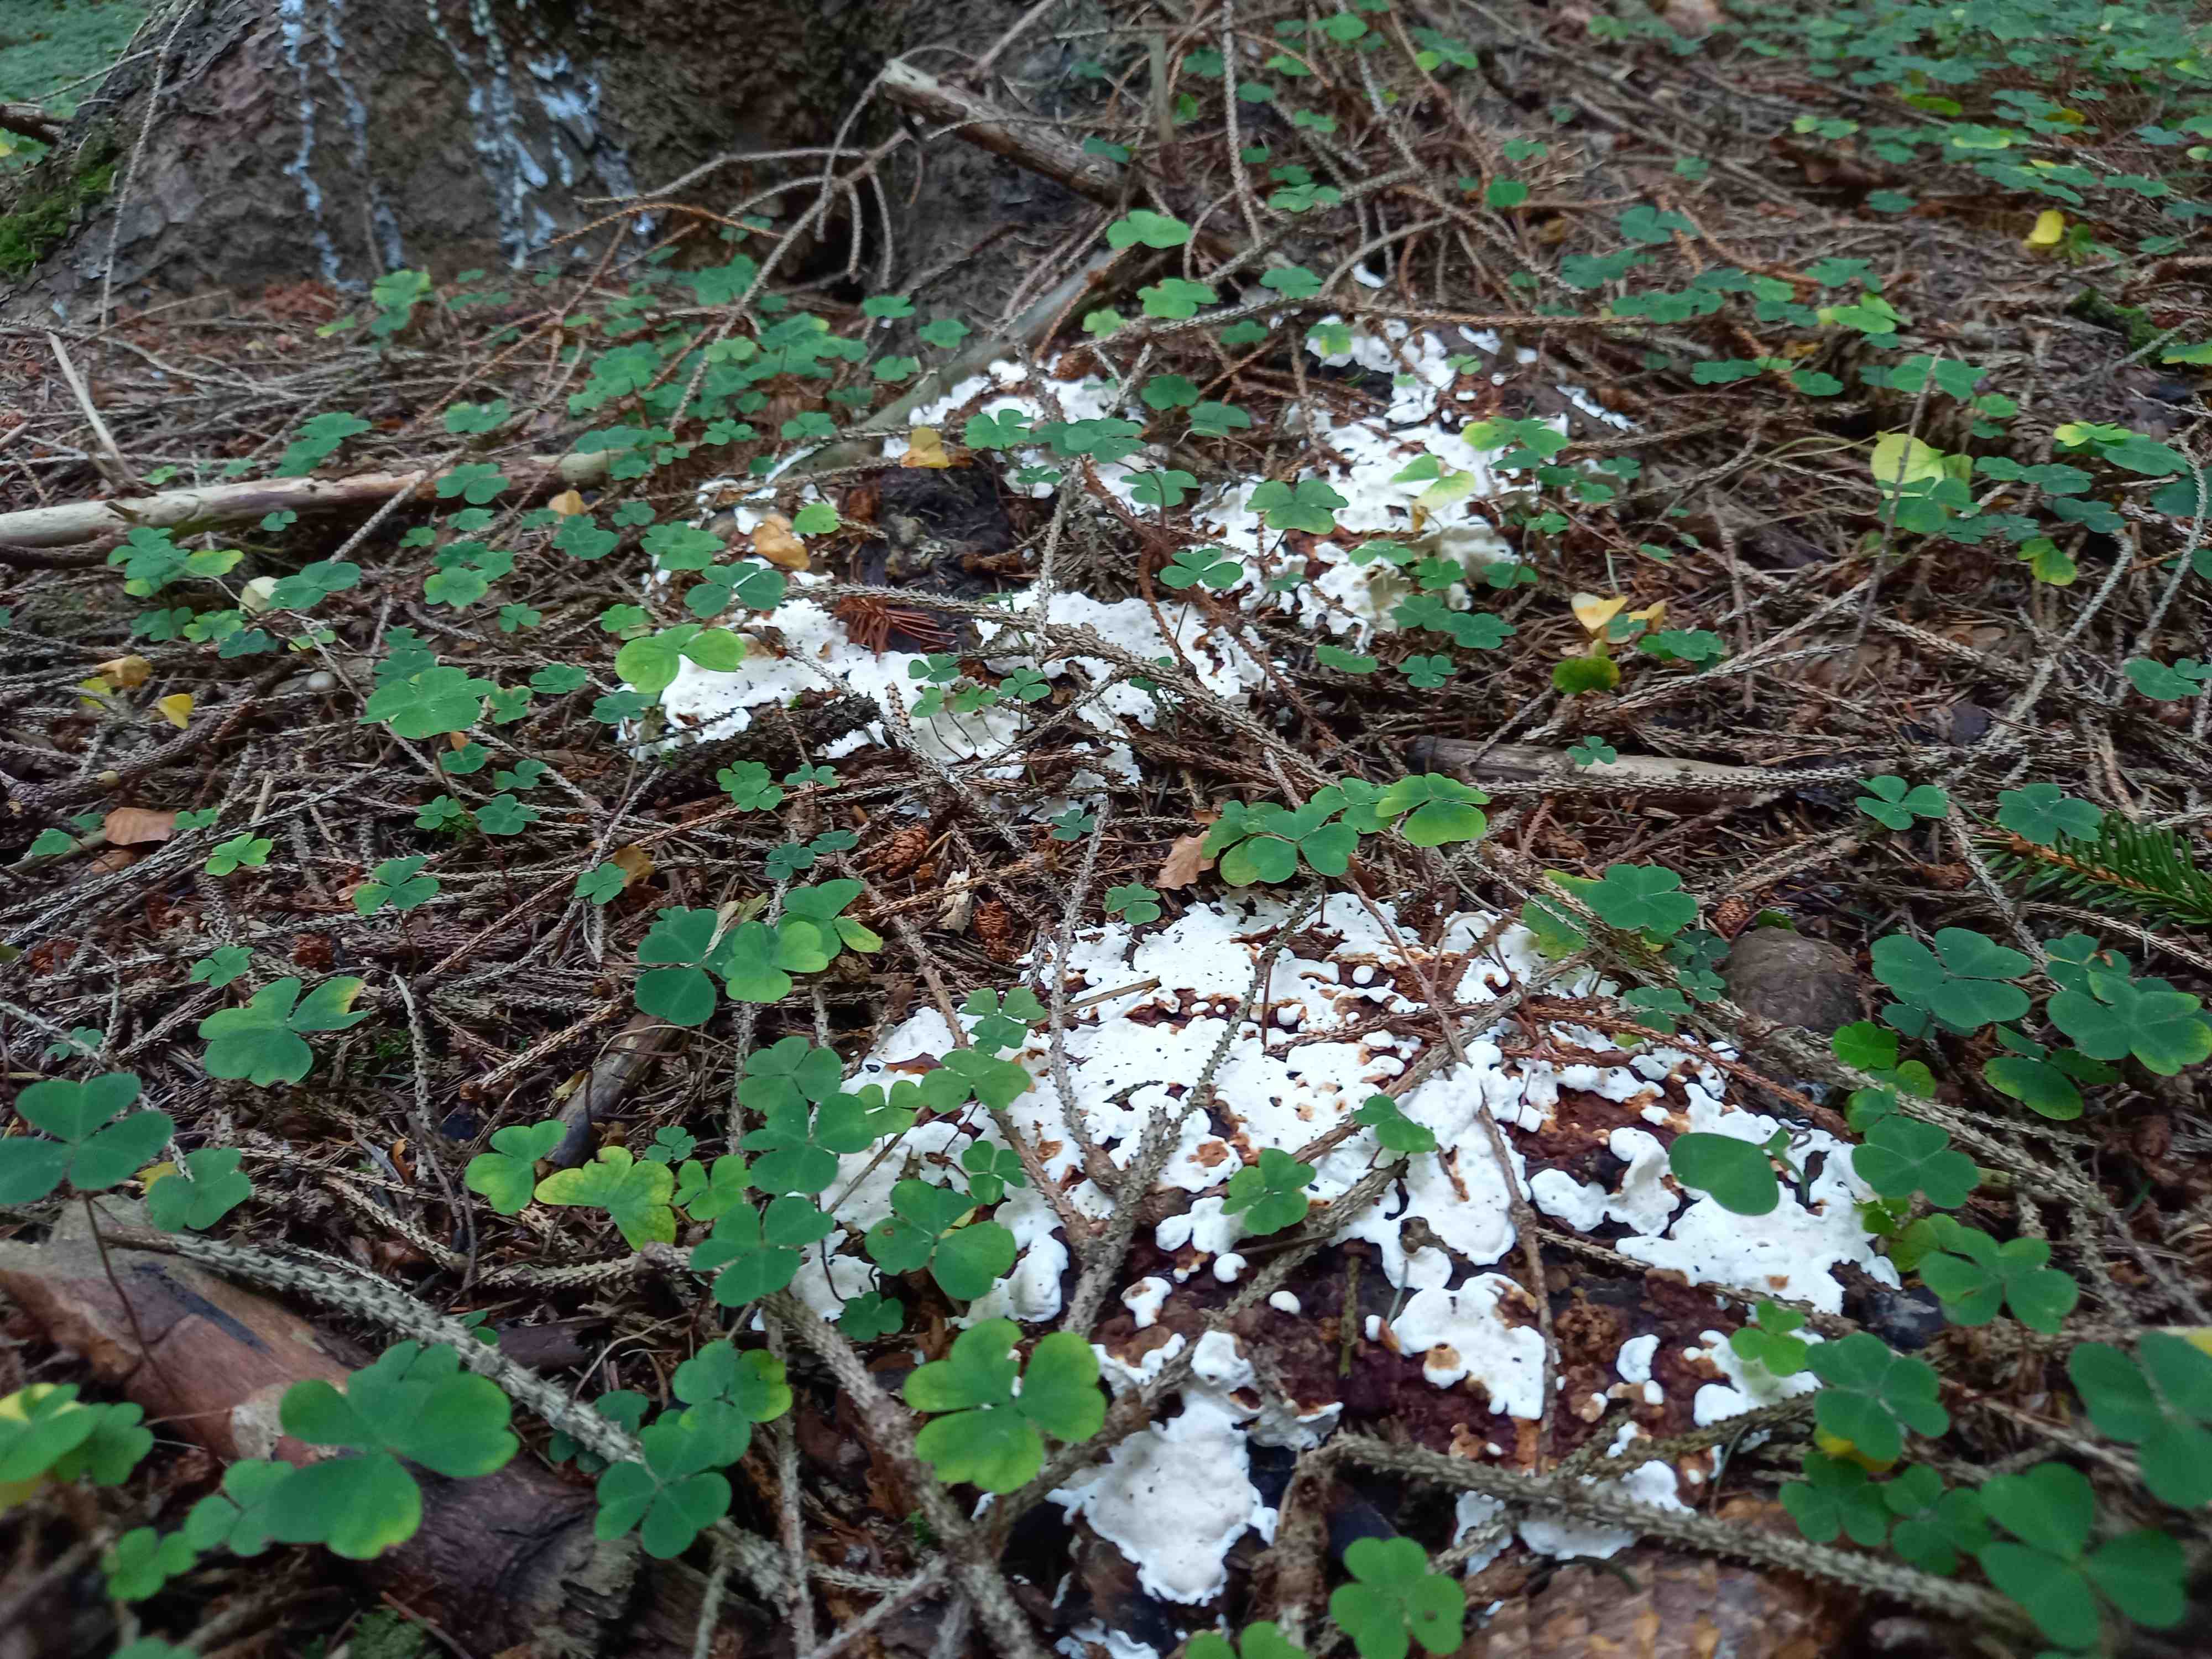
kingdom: Fungi
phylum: Basidiomycota
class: Agaricomycetes
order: Russulales
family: Bondarzewiaceae
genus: Heterobasidion
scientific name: Heterobasidion annosum
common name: almindelig rodfordærver
